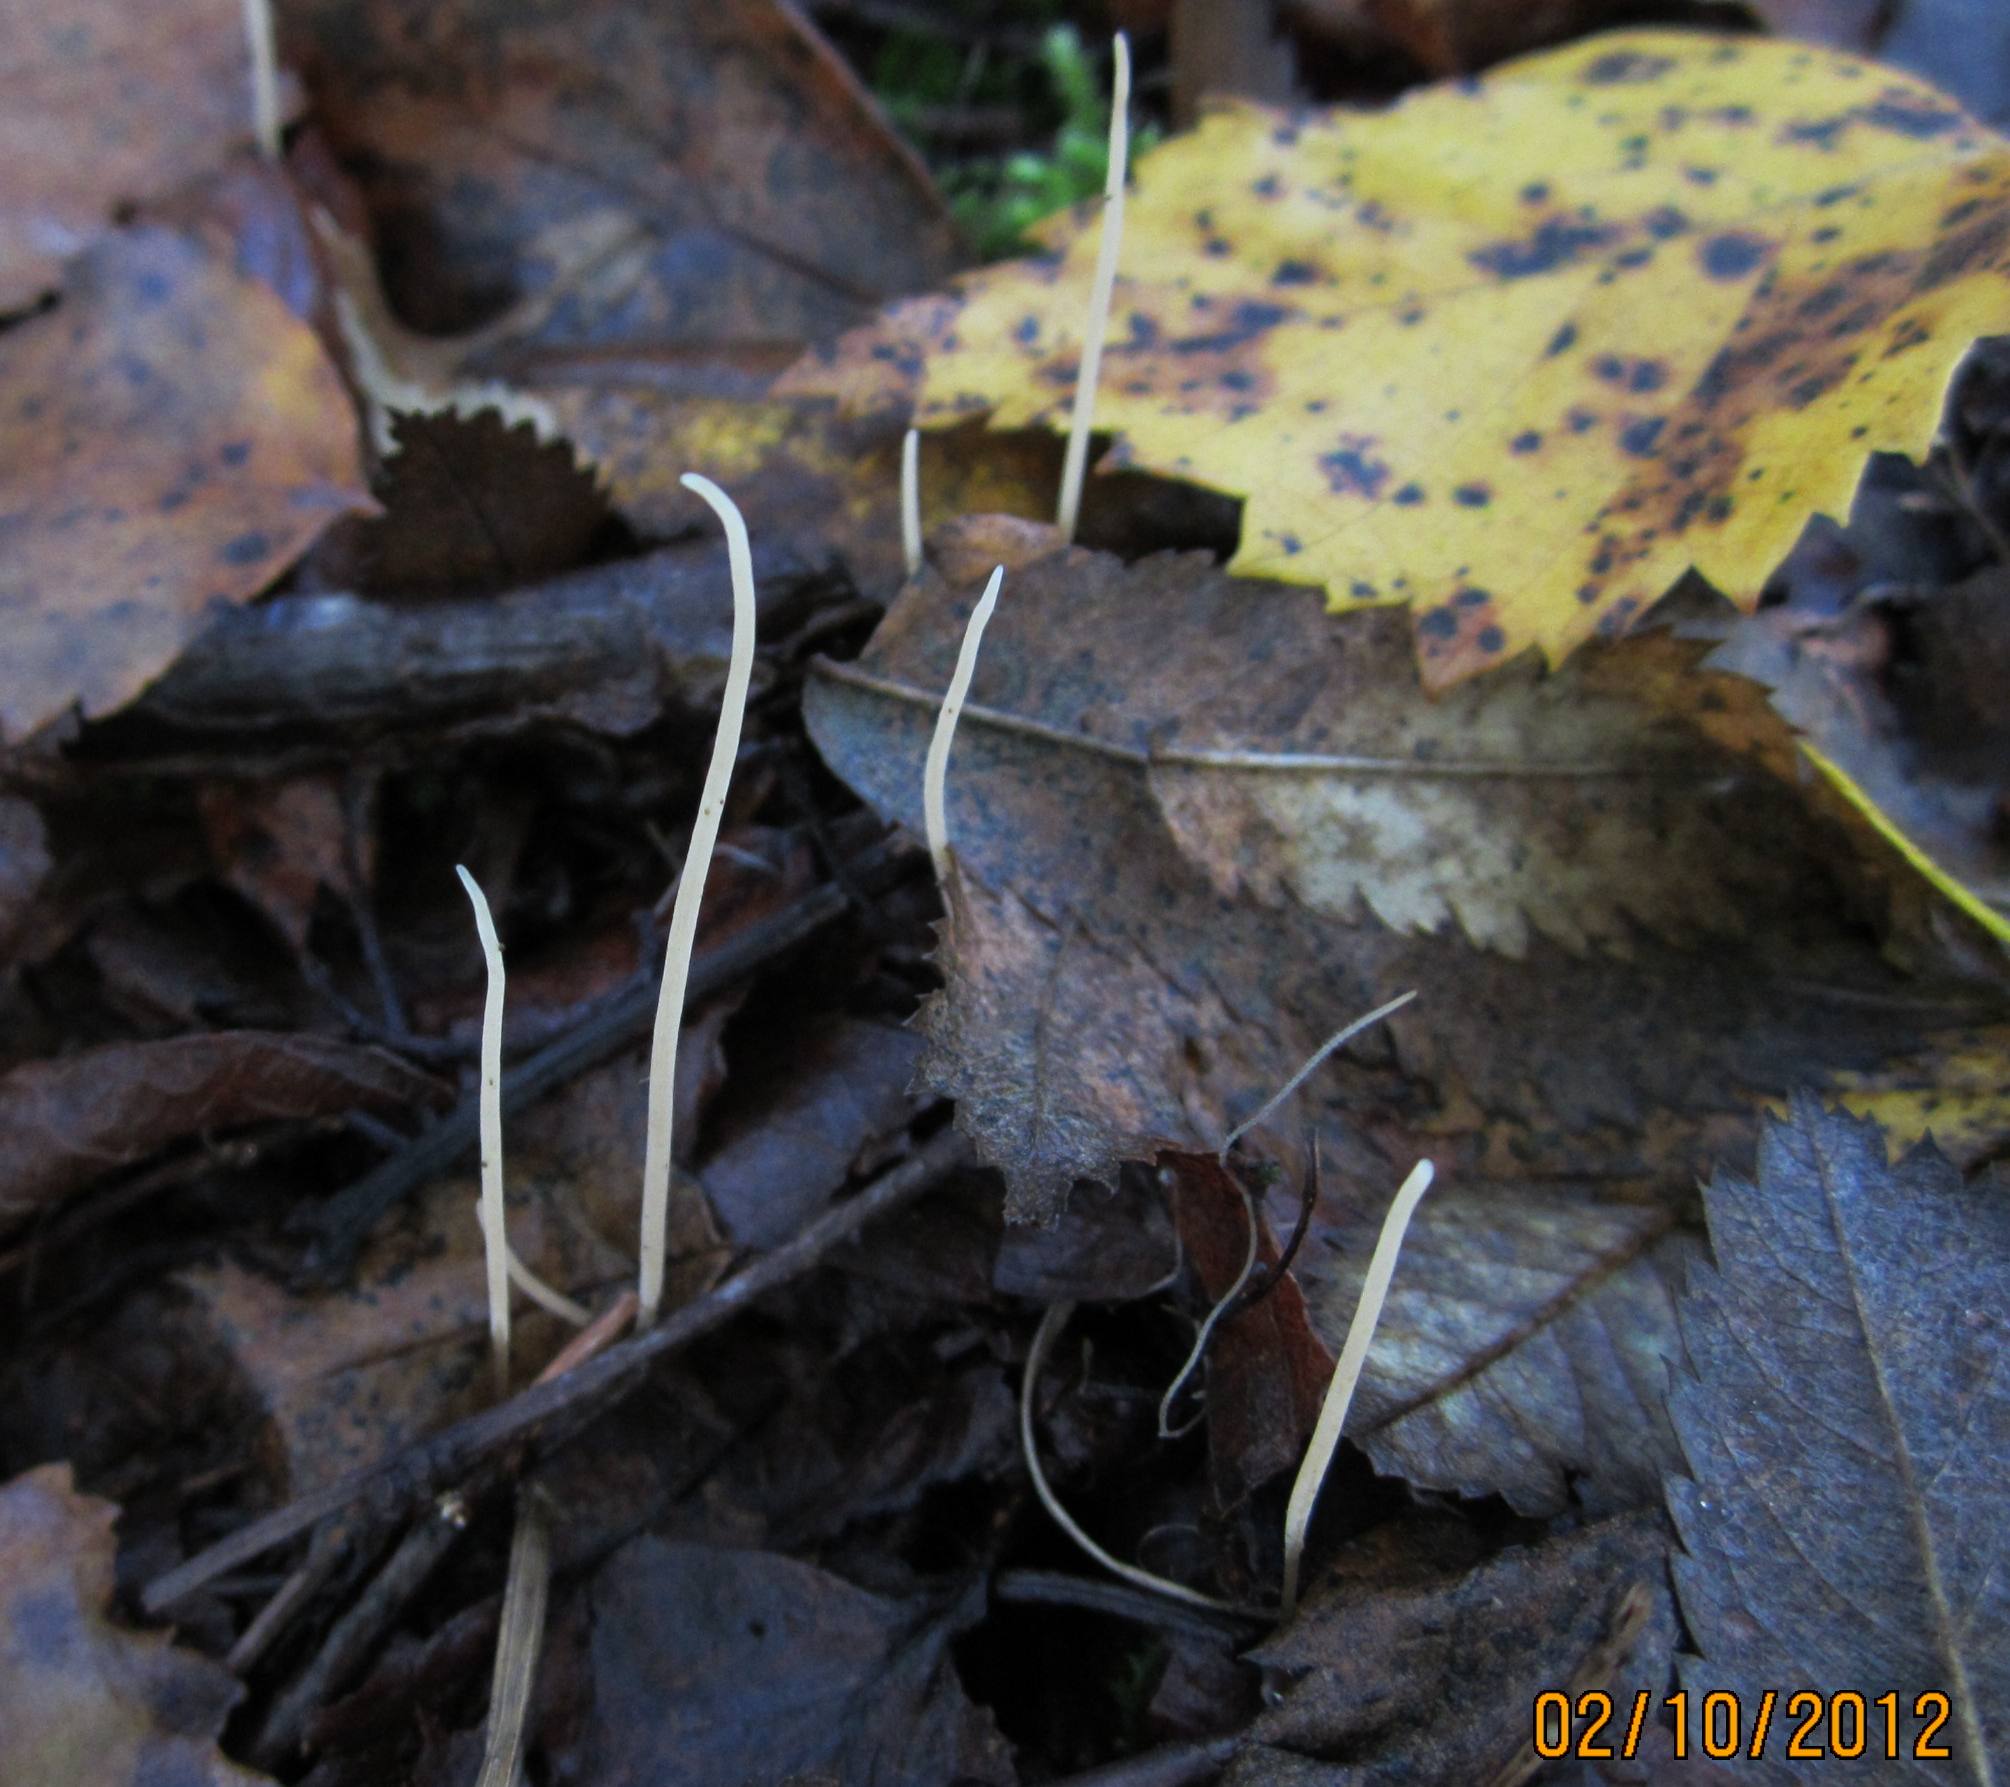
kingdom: Fungi
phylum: Basidiomycota
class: Agaricomycetes
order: Agaricales
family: Typhulaceae
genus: Typhula
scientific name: Typhula juncea
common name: trådagtig rørkølle
